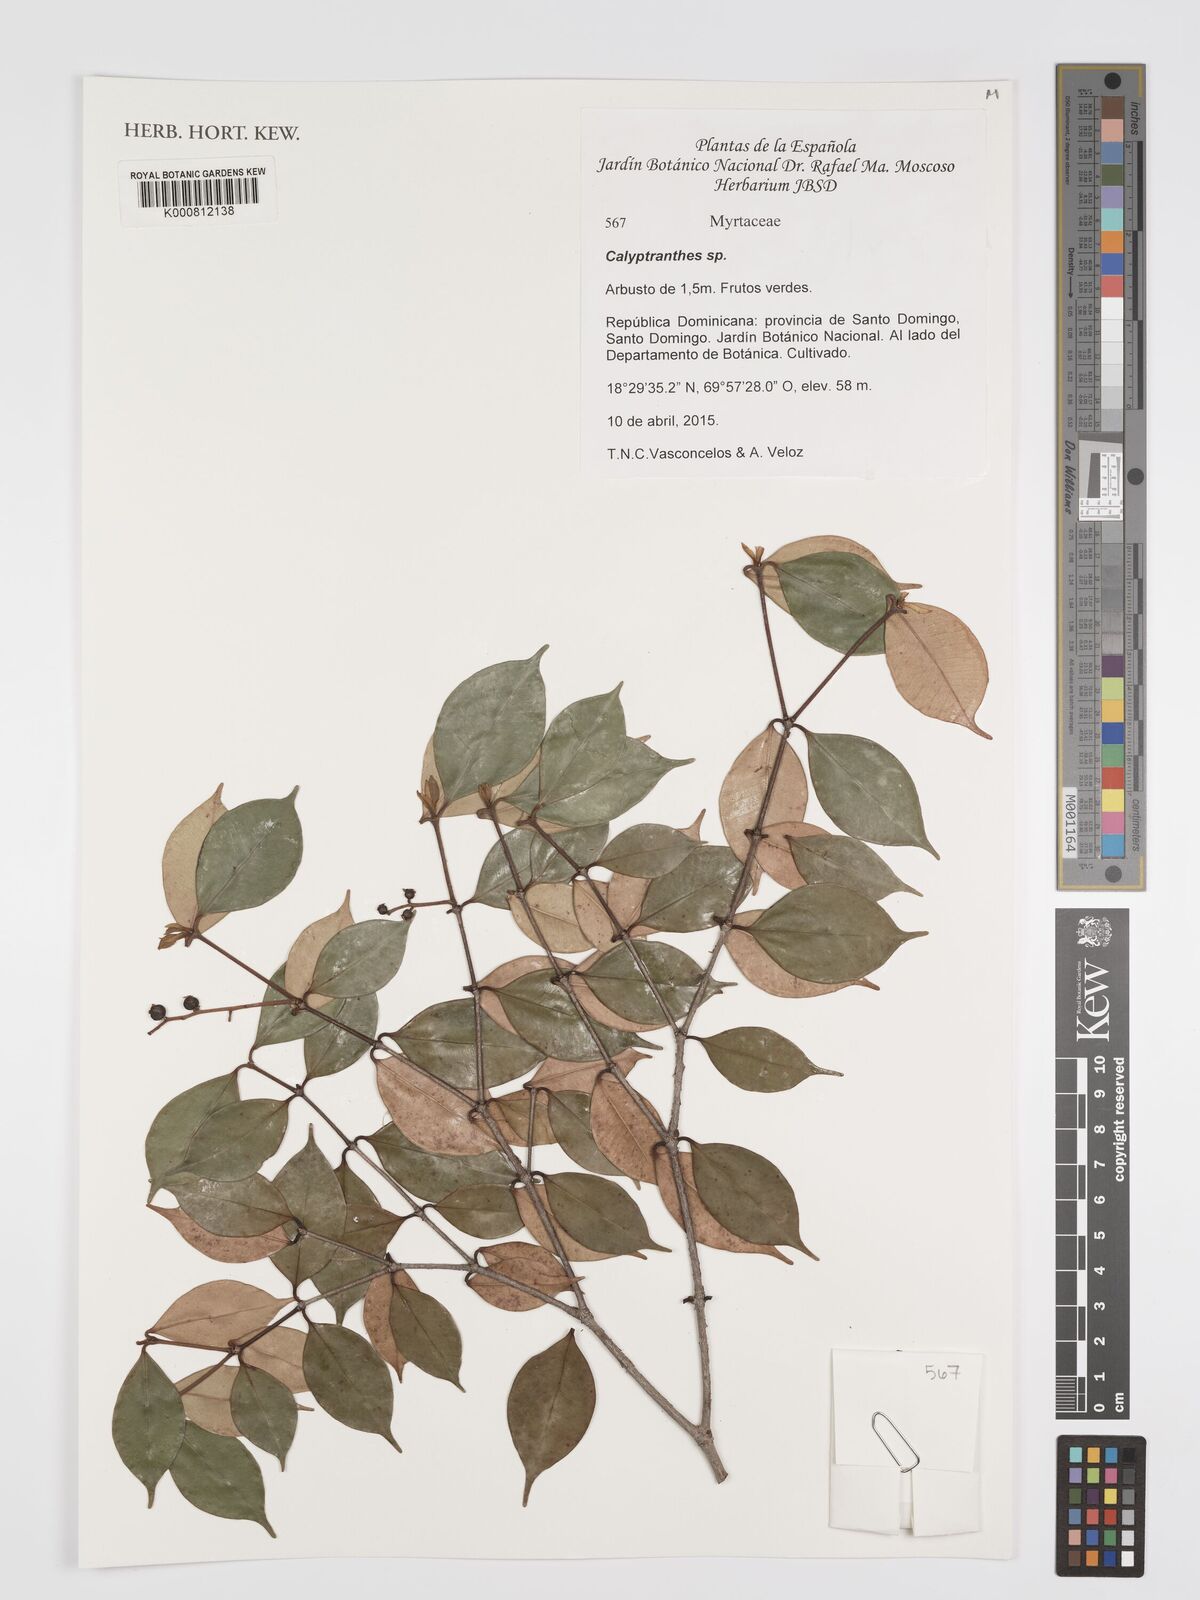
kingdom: Plantae
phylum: Tracheophyta
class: Magnoliopsida
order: Myrtales
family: Myrtaceae
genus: Calyptranthes
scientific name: Calyptranthes
